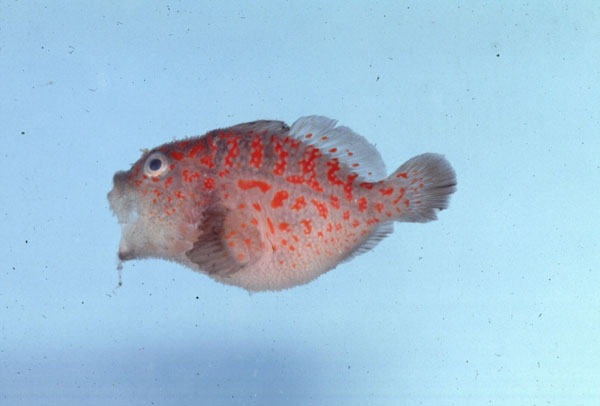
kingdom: Animalia
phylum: Chordata
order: Scorpaeniformes
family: Scorpaenidae
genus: Caracanthus
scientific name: Caracanthus madagascariensis
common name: Spotted coral croucher
